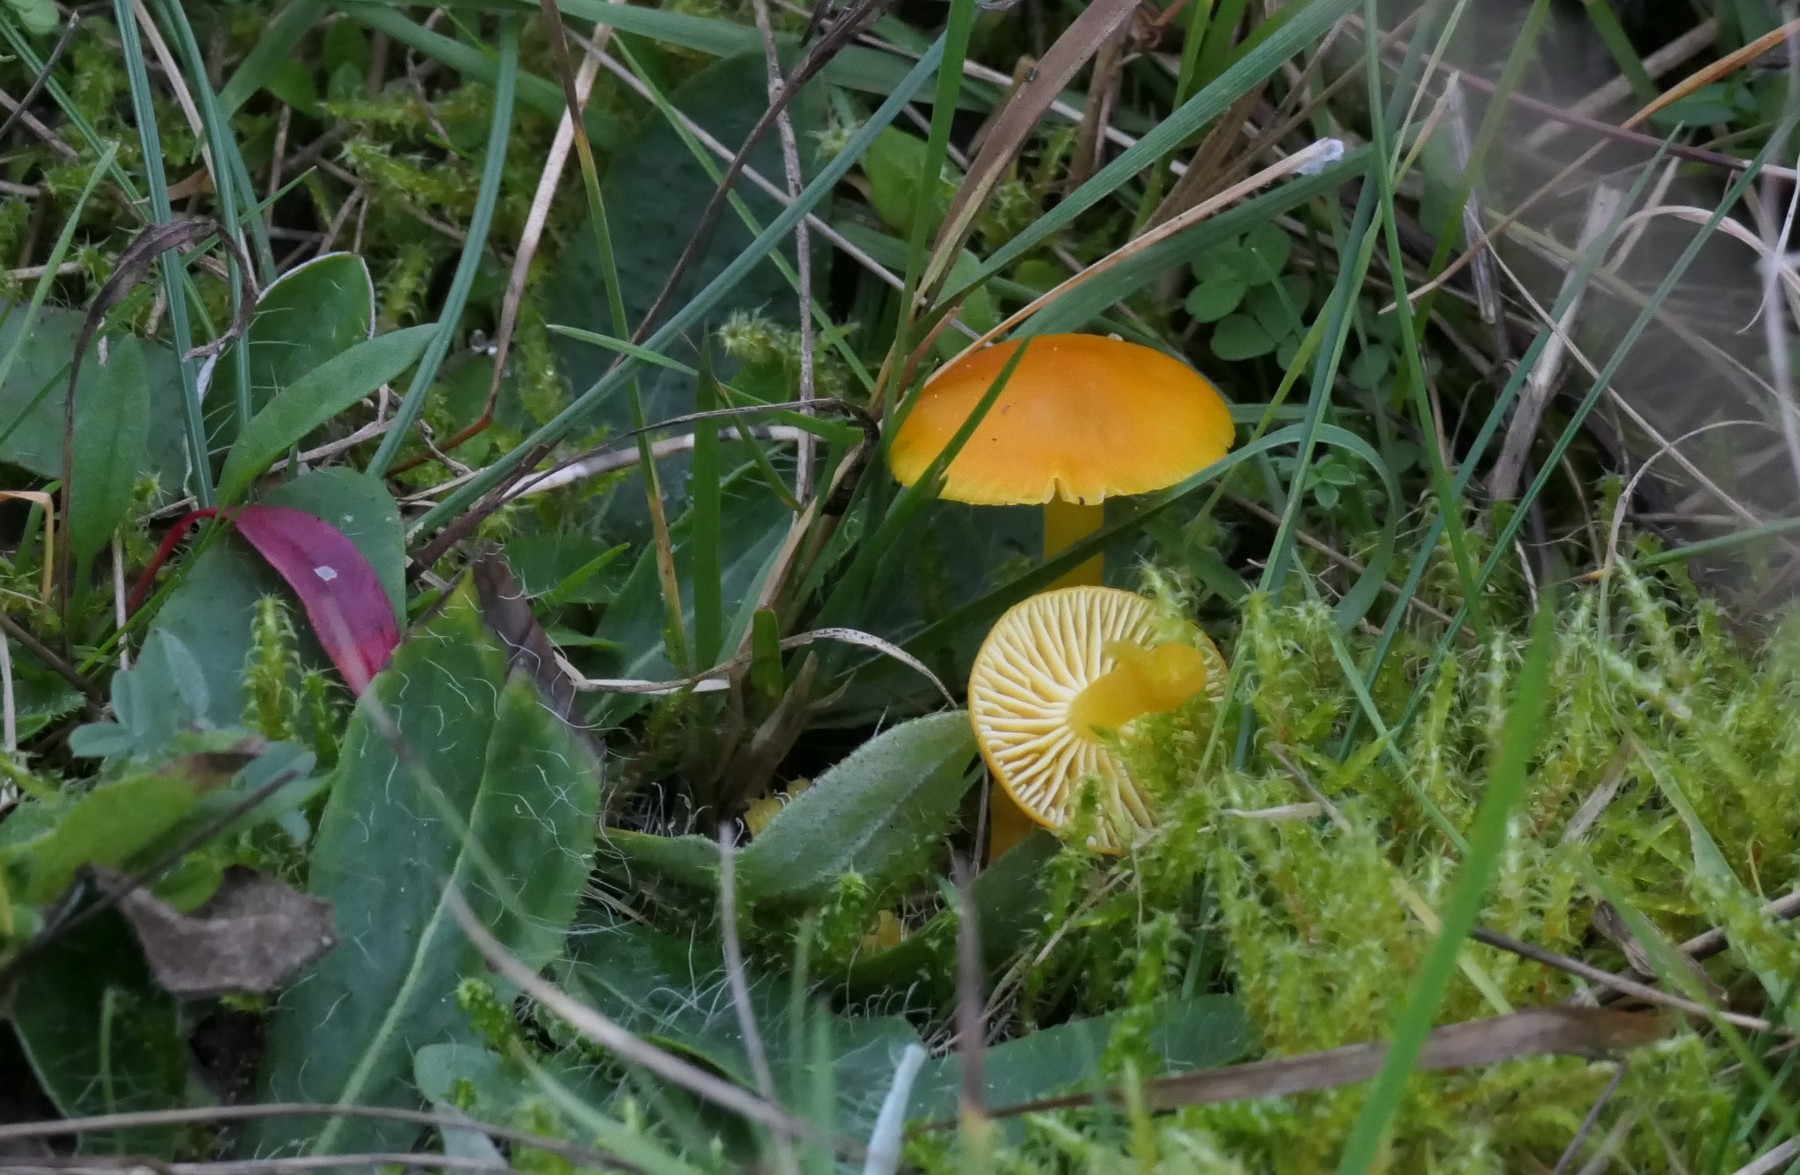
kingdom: Fungi
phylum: Basidiomycota
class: Agaricomycetes
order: Agaricales
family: Hygrophoraceae
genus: Hygrocybe
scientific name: Hygrocybe ceracea
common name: voksgul vokshat
